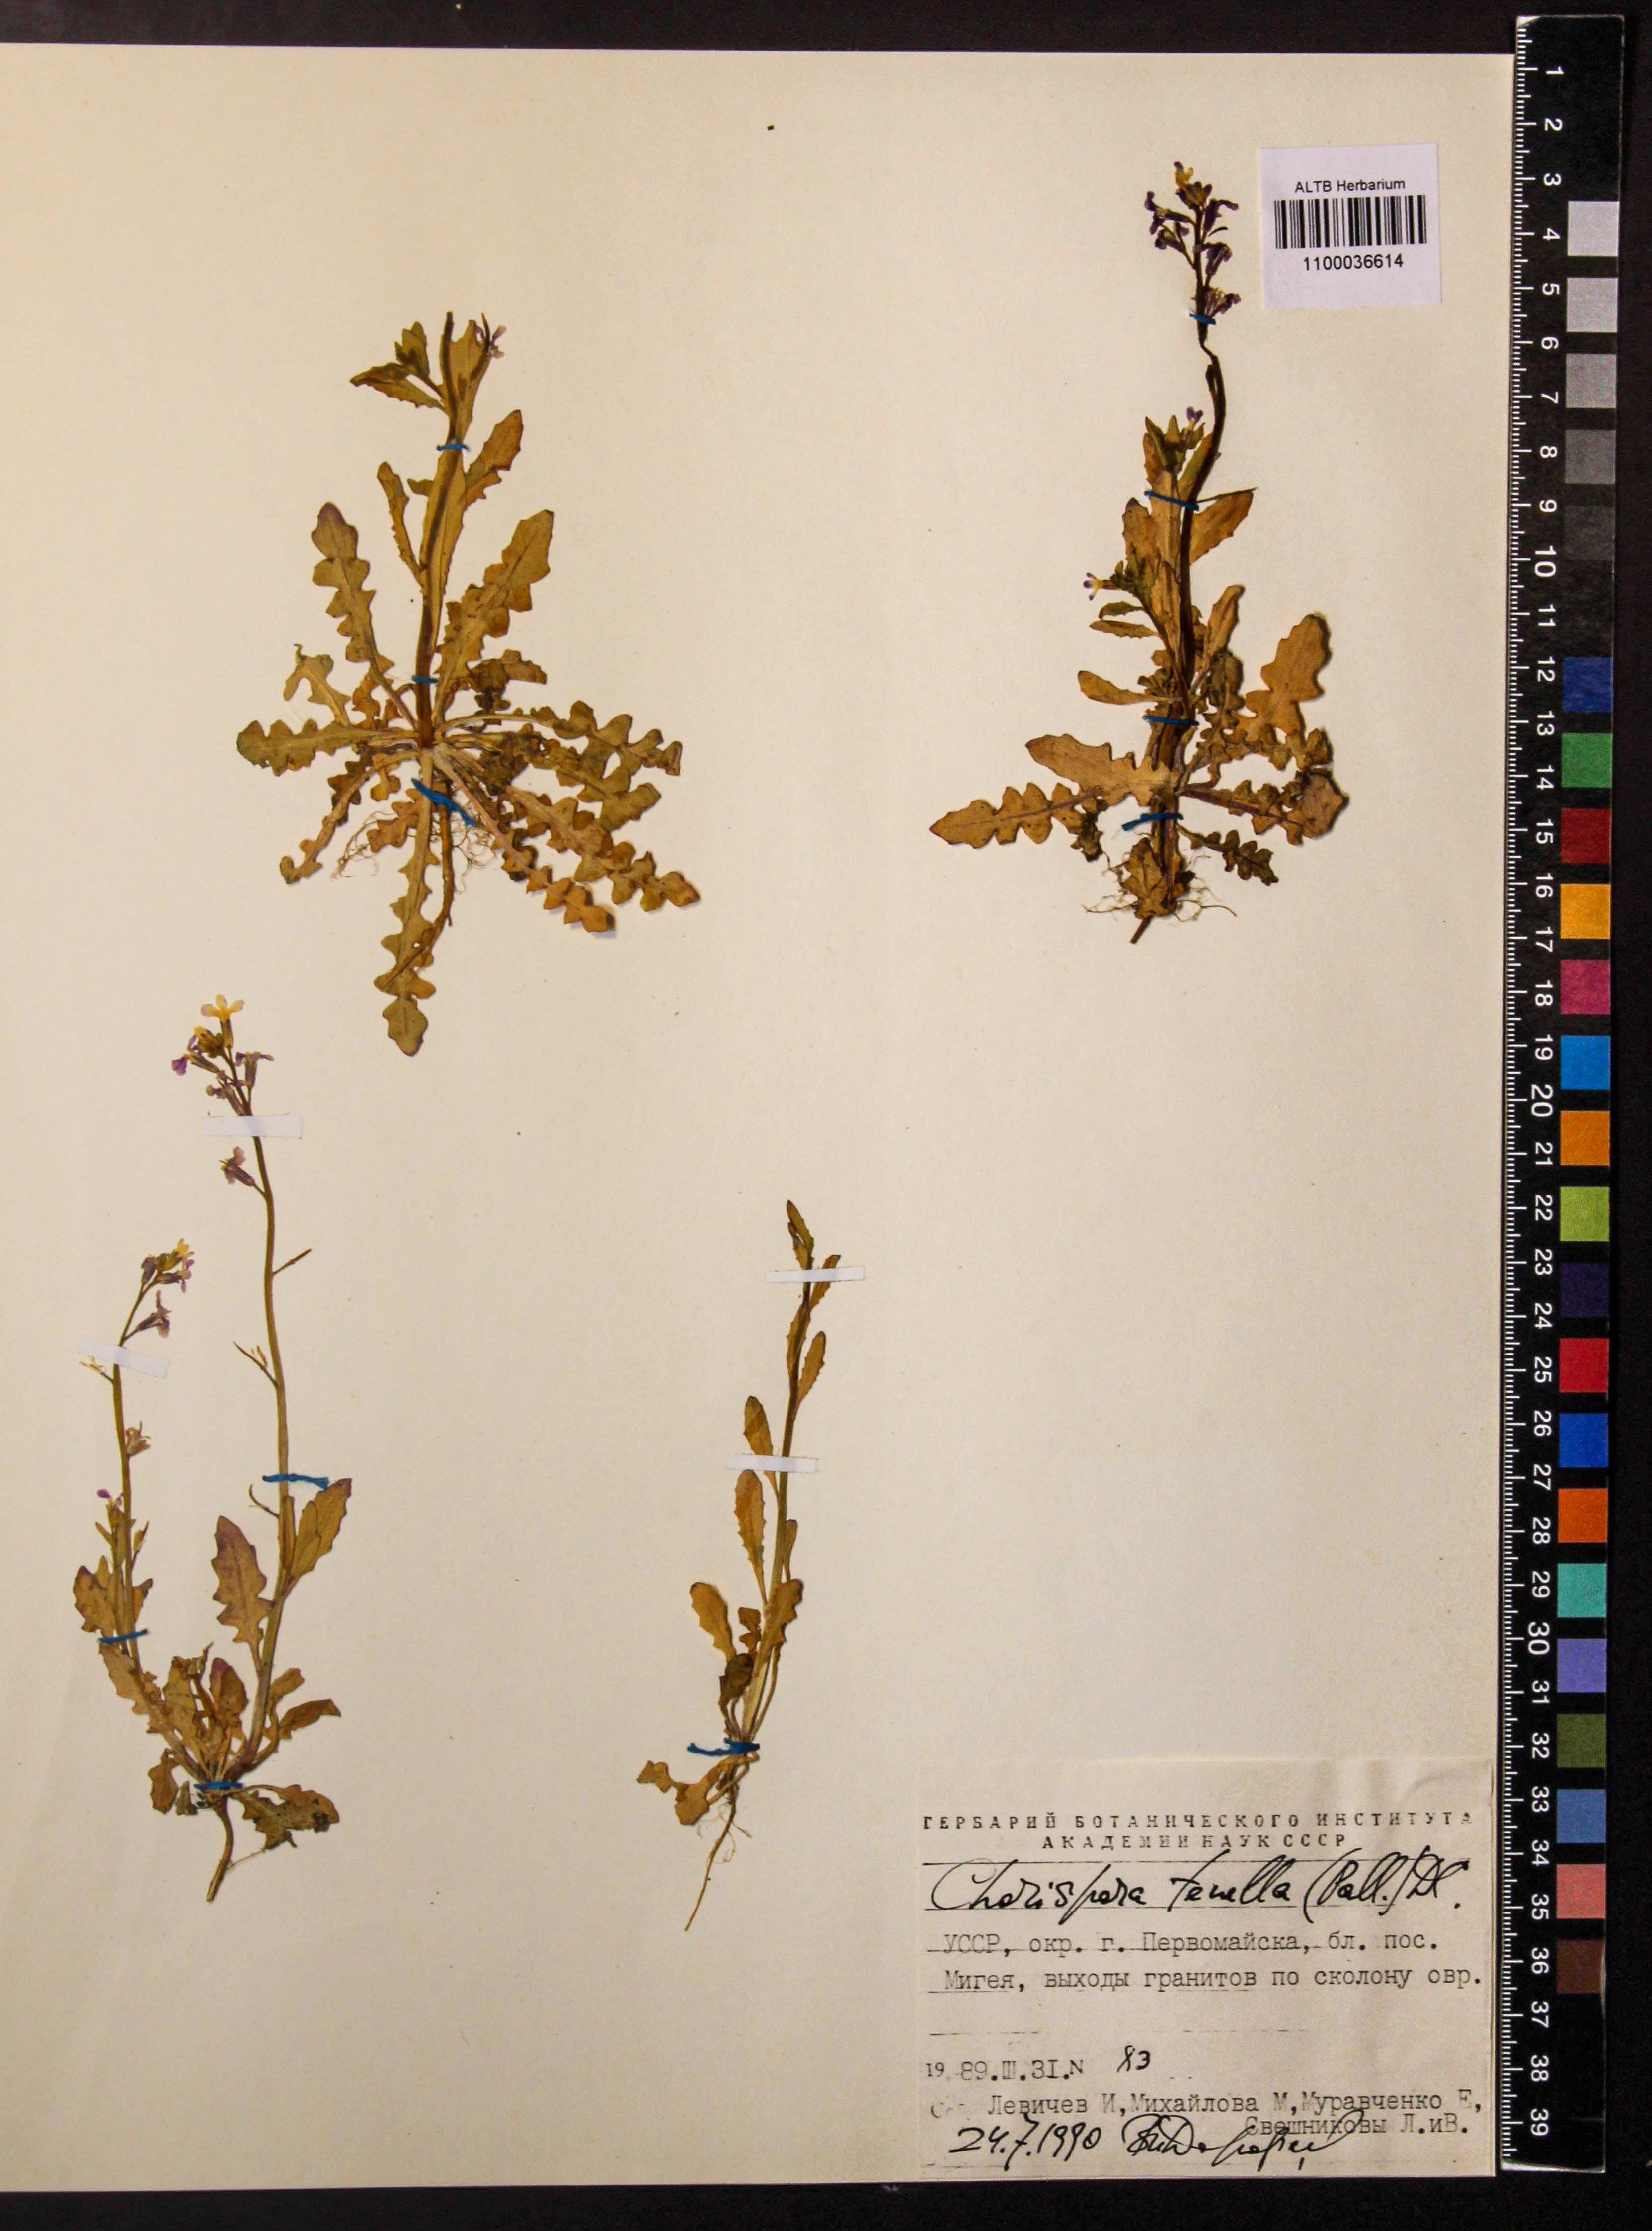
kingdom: Plantae
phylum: Tracheophyta
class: Magnoliopsida
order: Brassicales
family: Brassicaceae
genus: Chorispora
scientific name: Chorispora tenella
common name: Crossflower
